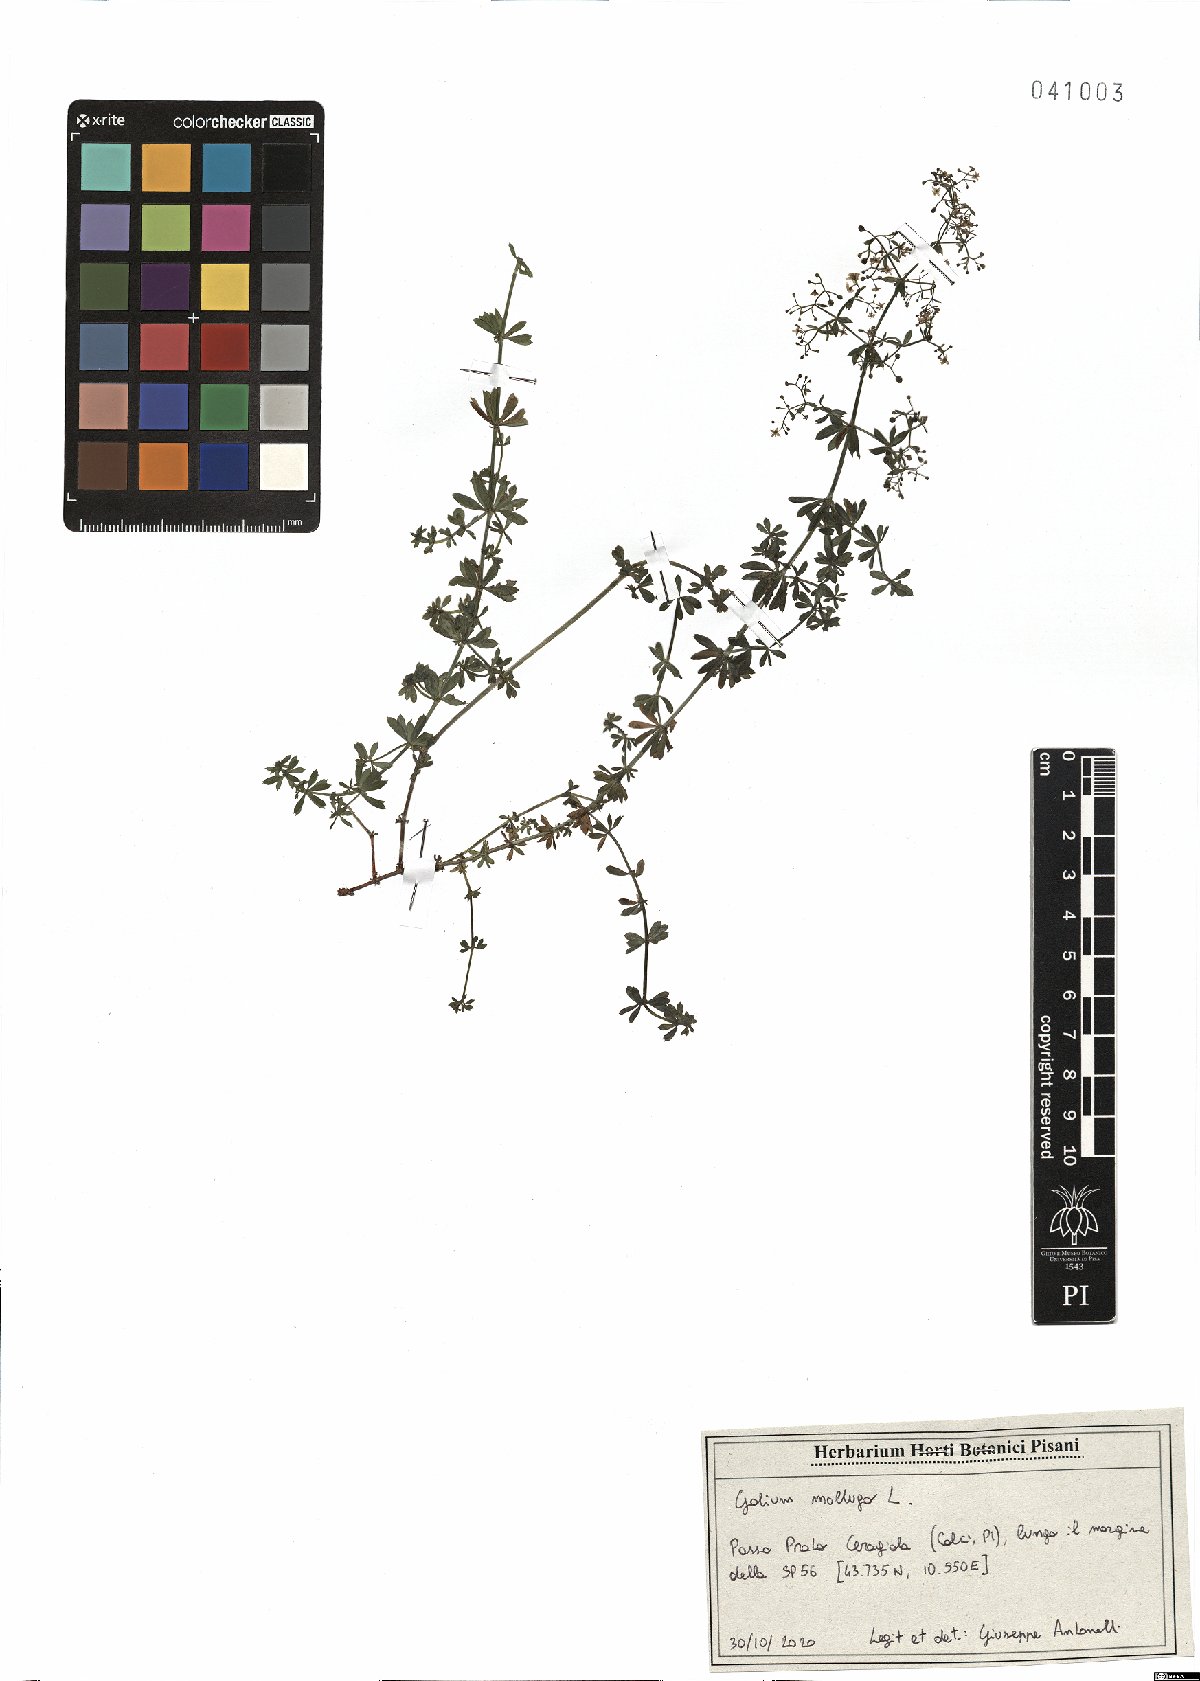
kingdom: Plantae
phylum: Tracheophyta
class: Magnoliopsida
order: Gentianales
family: Rubiaceae
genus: Galium
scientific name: Galium mollugo
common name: Hedge bedstraw
